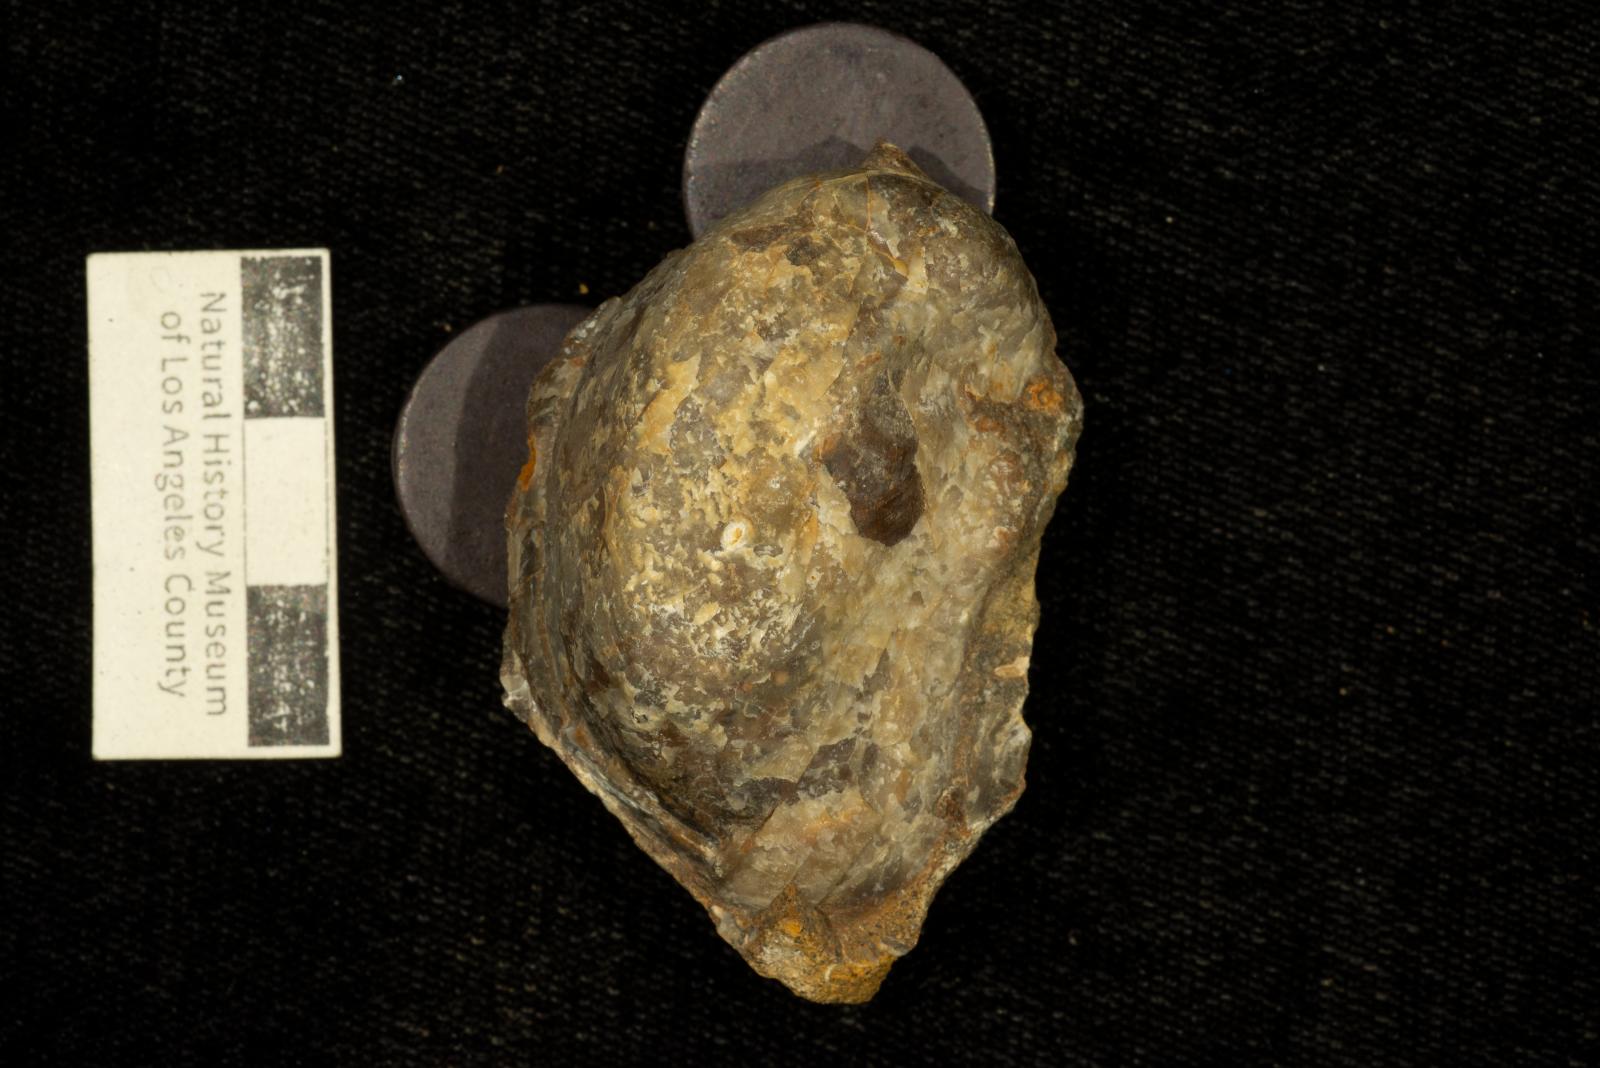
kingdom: Animalia
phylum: Mollusca
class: Bivalvia
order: Ostreida
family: Gryphaeidae
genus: Costagyra
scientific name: Costagyra
